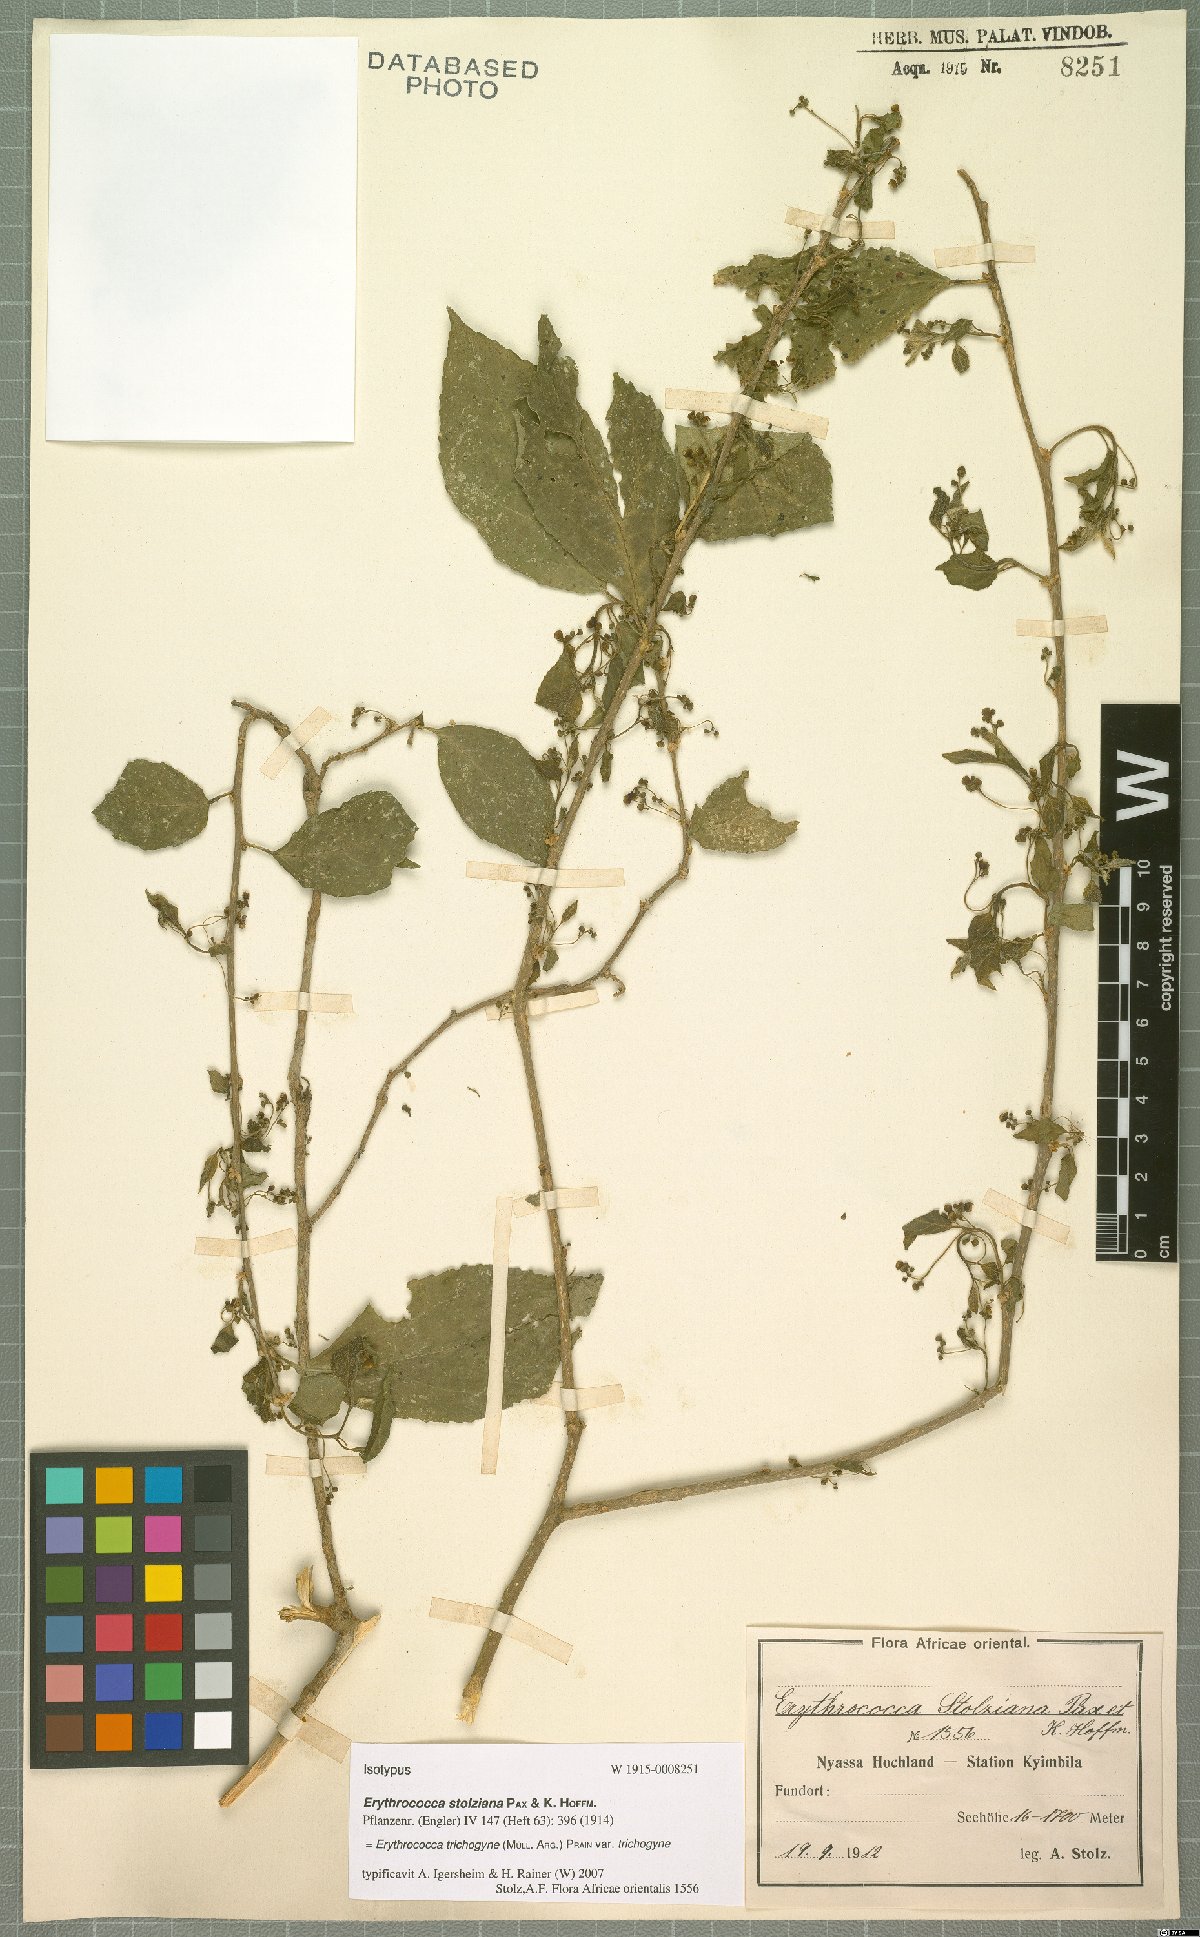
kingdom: Plantae
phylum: Tracheophyta
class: Magnoliopsida
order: Malpighiales
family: Euphorbiaceae
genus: Erythrococca
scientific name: Erythrococca trichogyne
